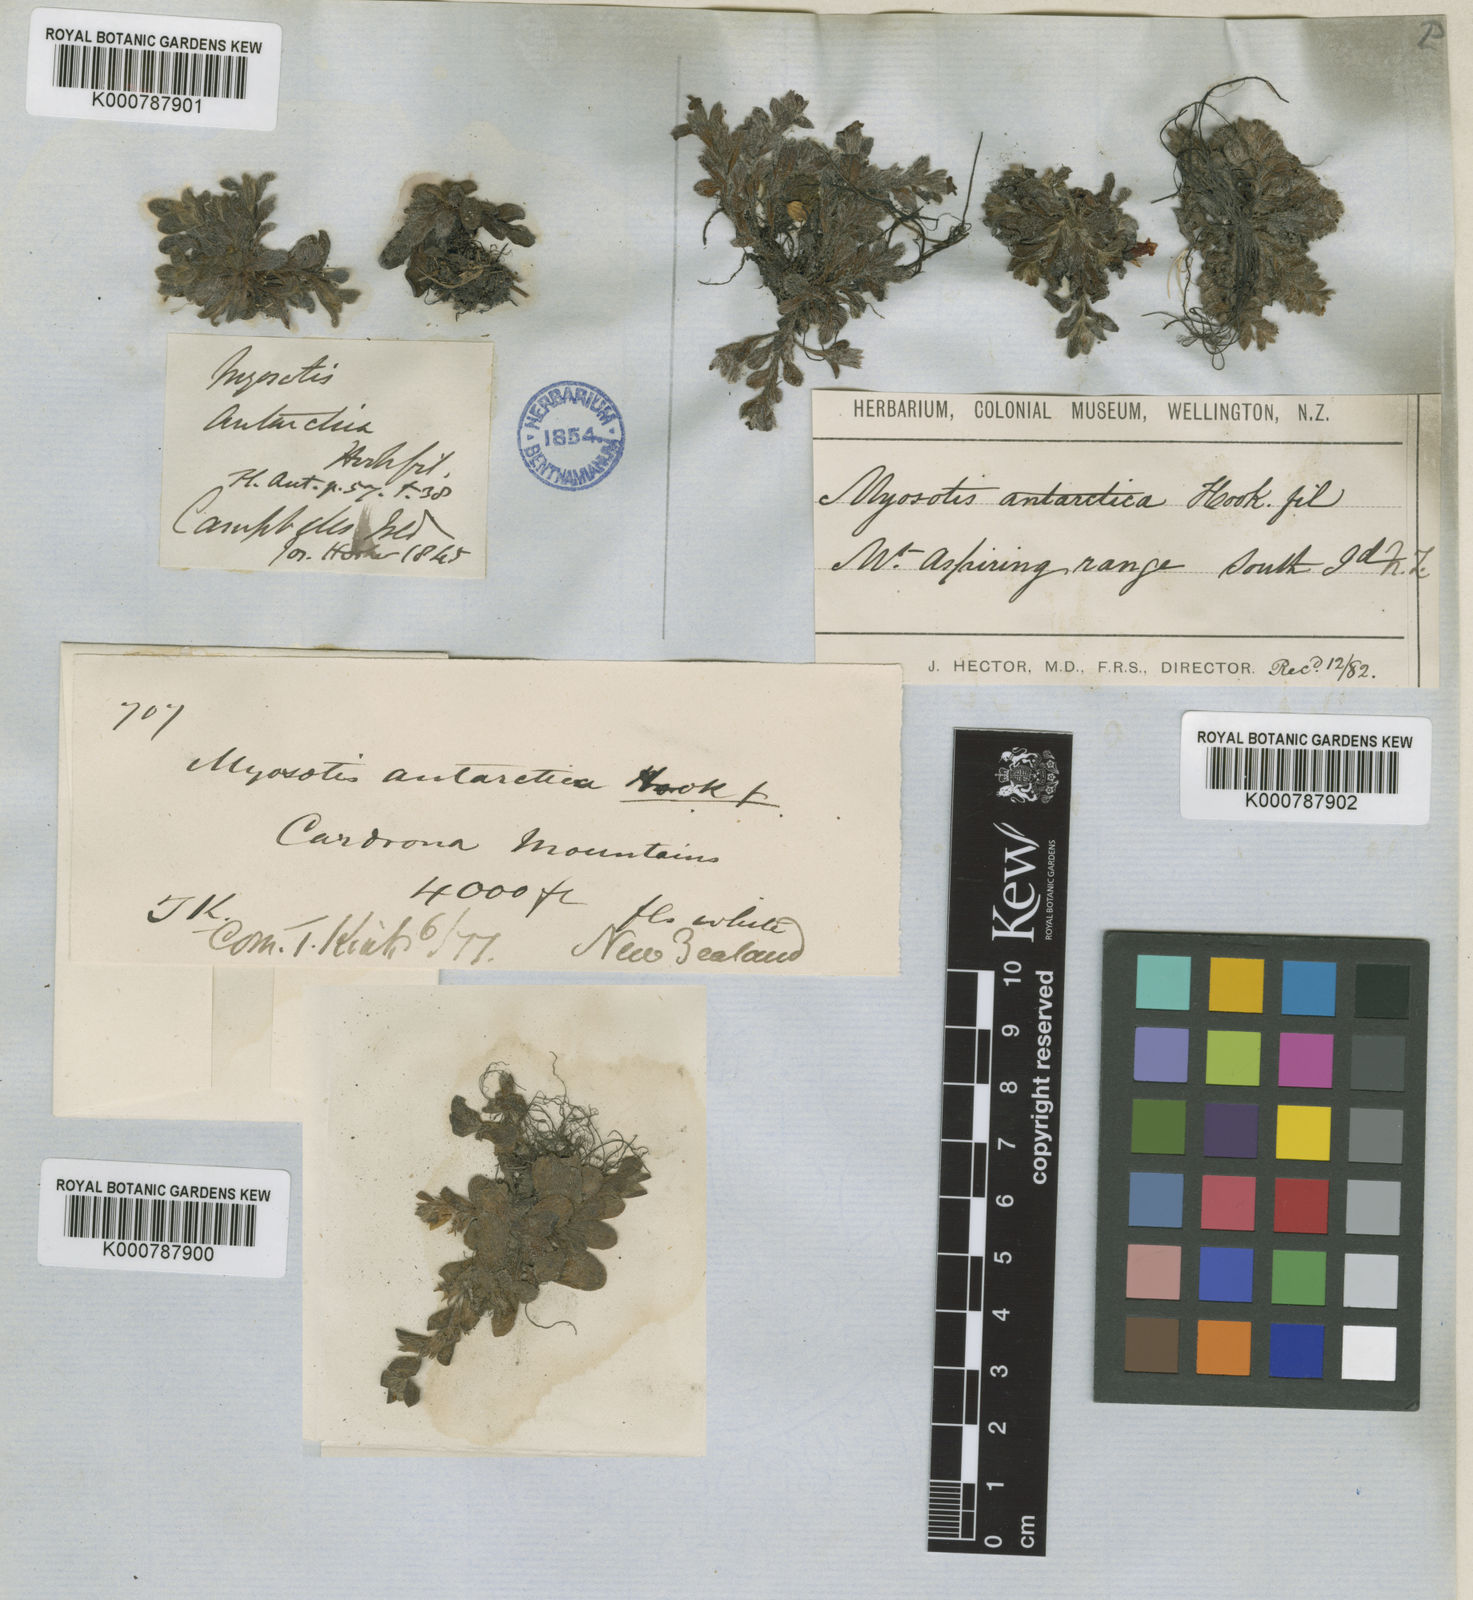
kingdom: Plantae
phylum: Tracheophyta
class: Magnoliopsida
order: Boraginales
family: Boraginaceae
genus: Myosotis
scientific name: Myosotis antarctica
